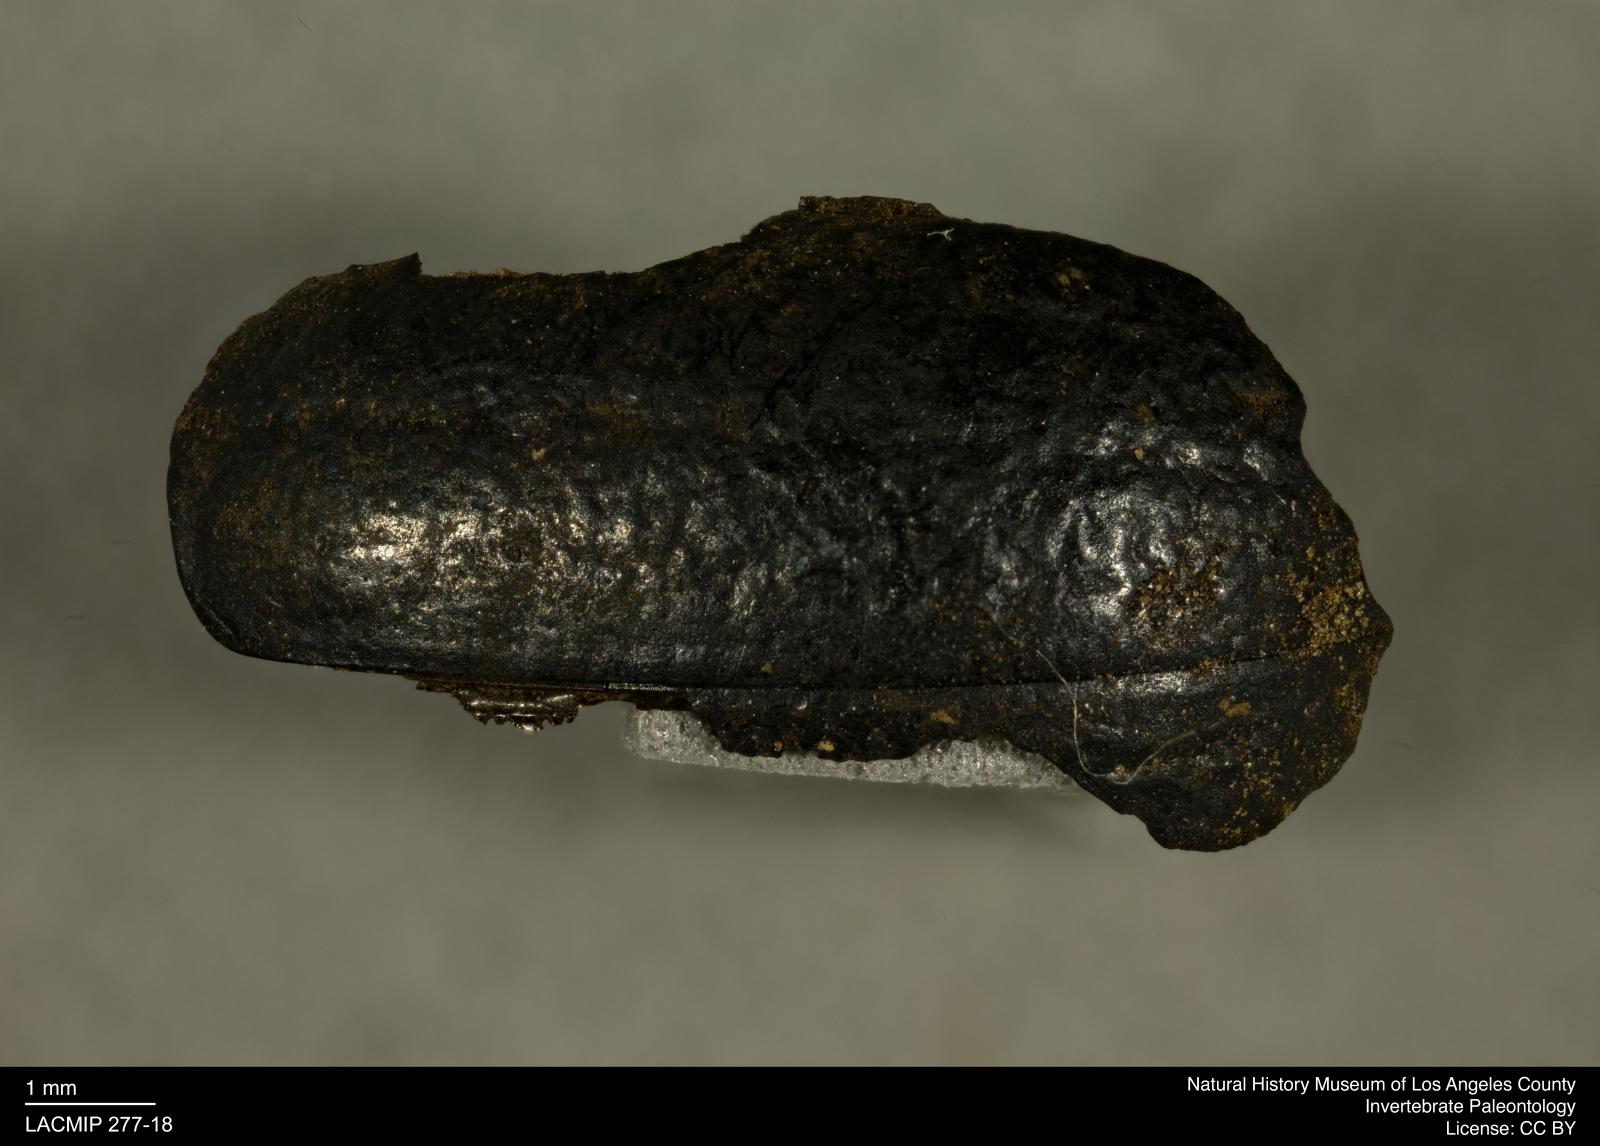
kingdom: Animalia
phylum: Arthropoda
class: Insecta
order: Coleoptera
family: Tenebrionidae
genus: Coniontis
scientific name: Coniontis abdominalis
